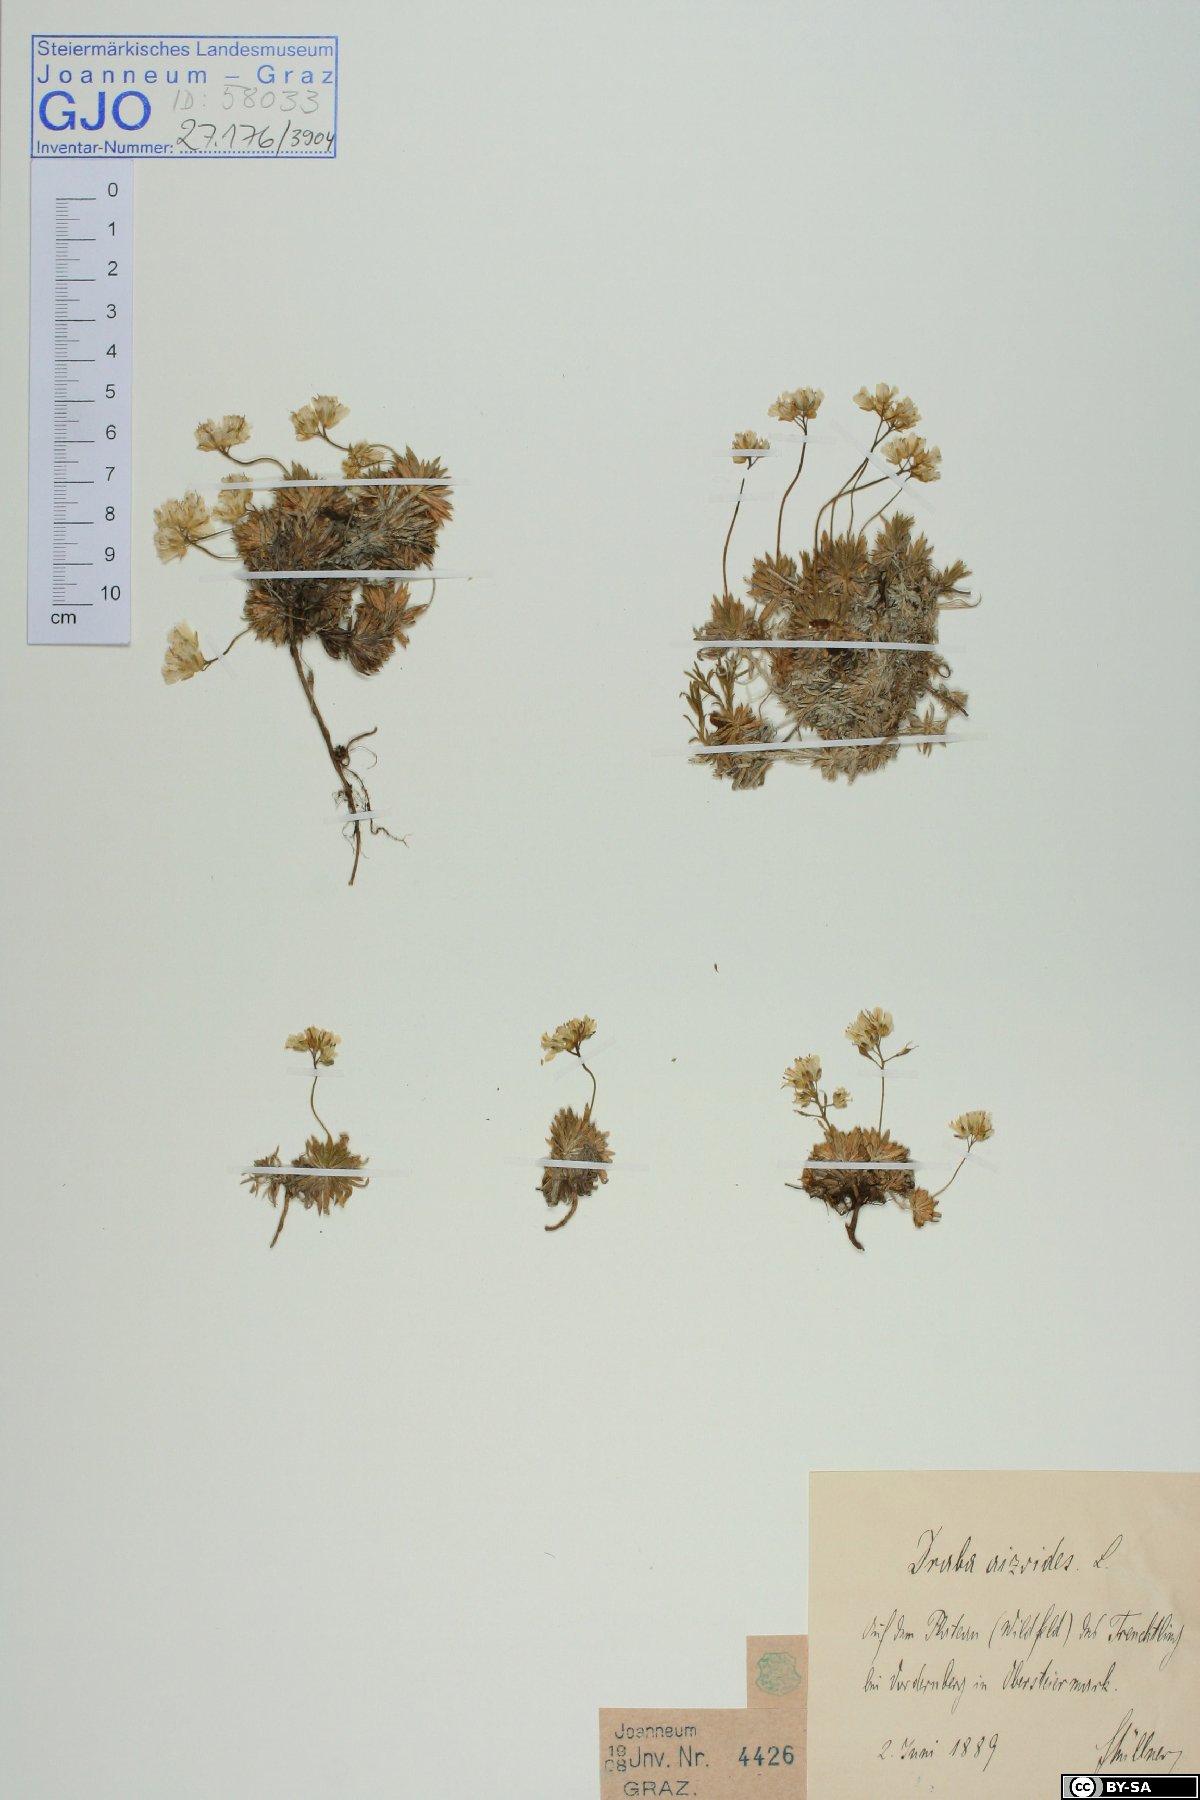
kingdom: Plantae
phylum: Tracheophyta
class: Magnoliopsida
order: Brassicales
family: Brassicaceae
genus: Draba
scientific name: Draba aizoides
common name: Yellow whitlowgrass
